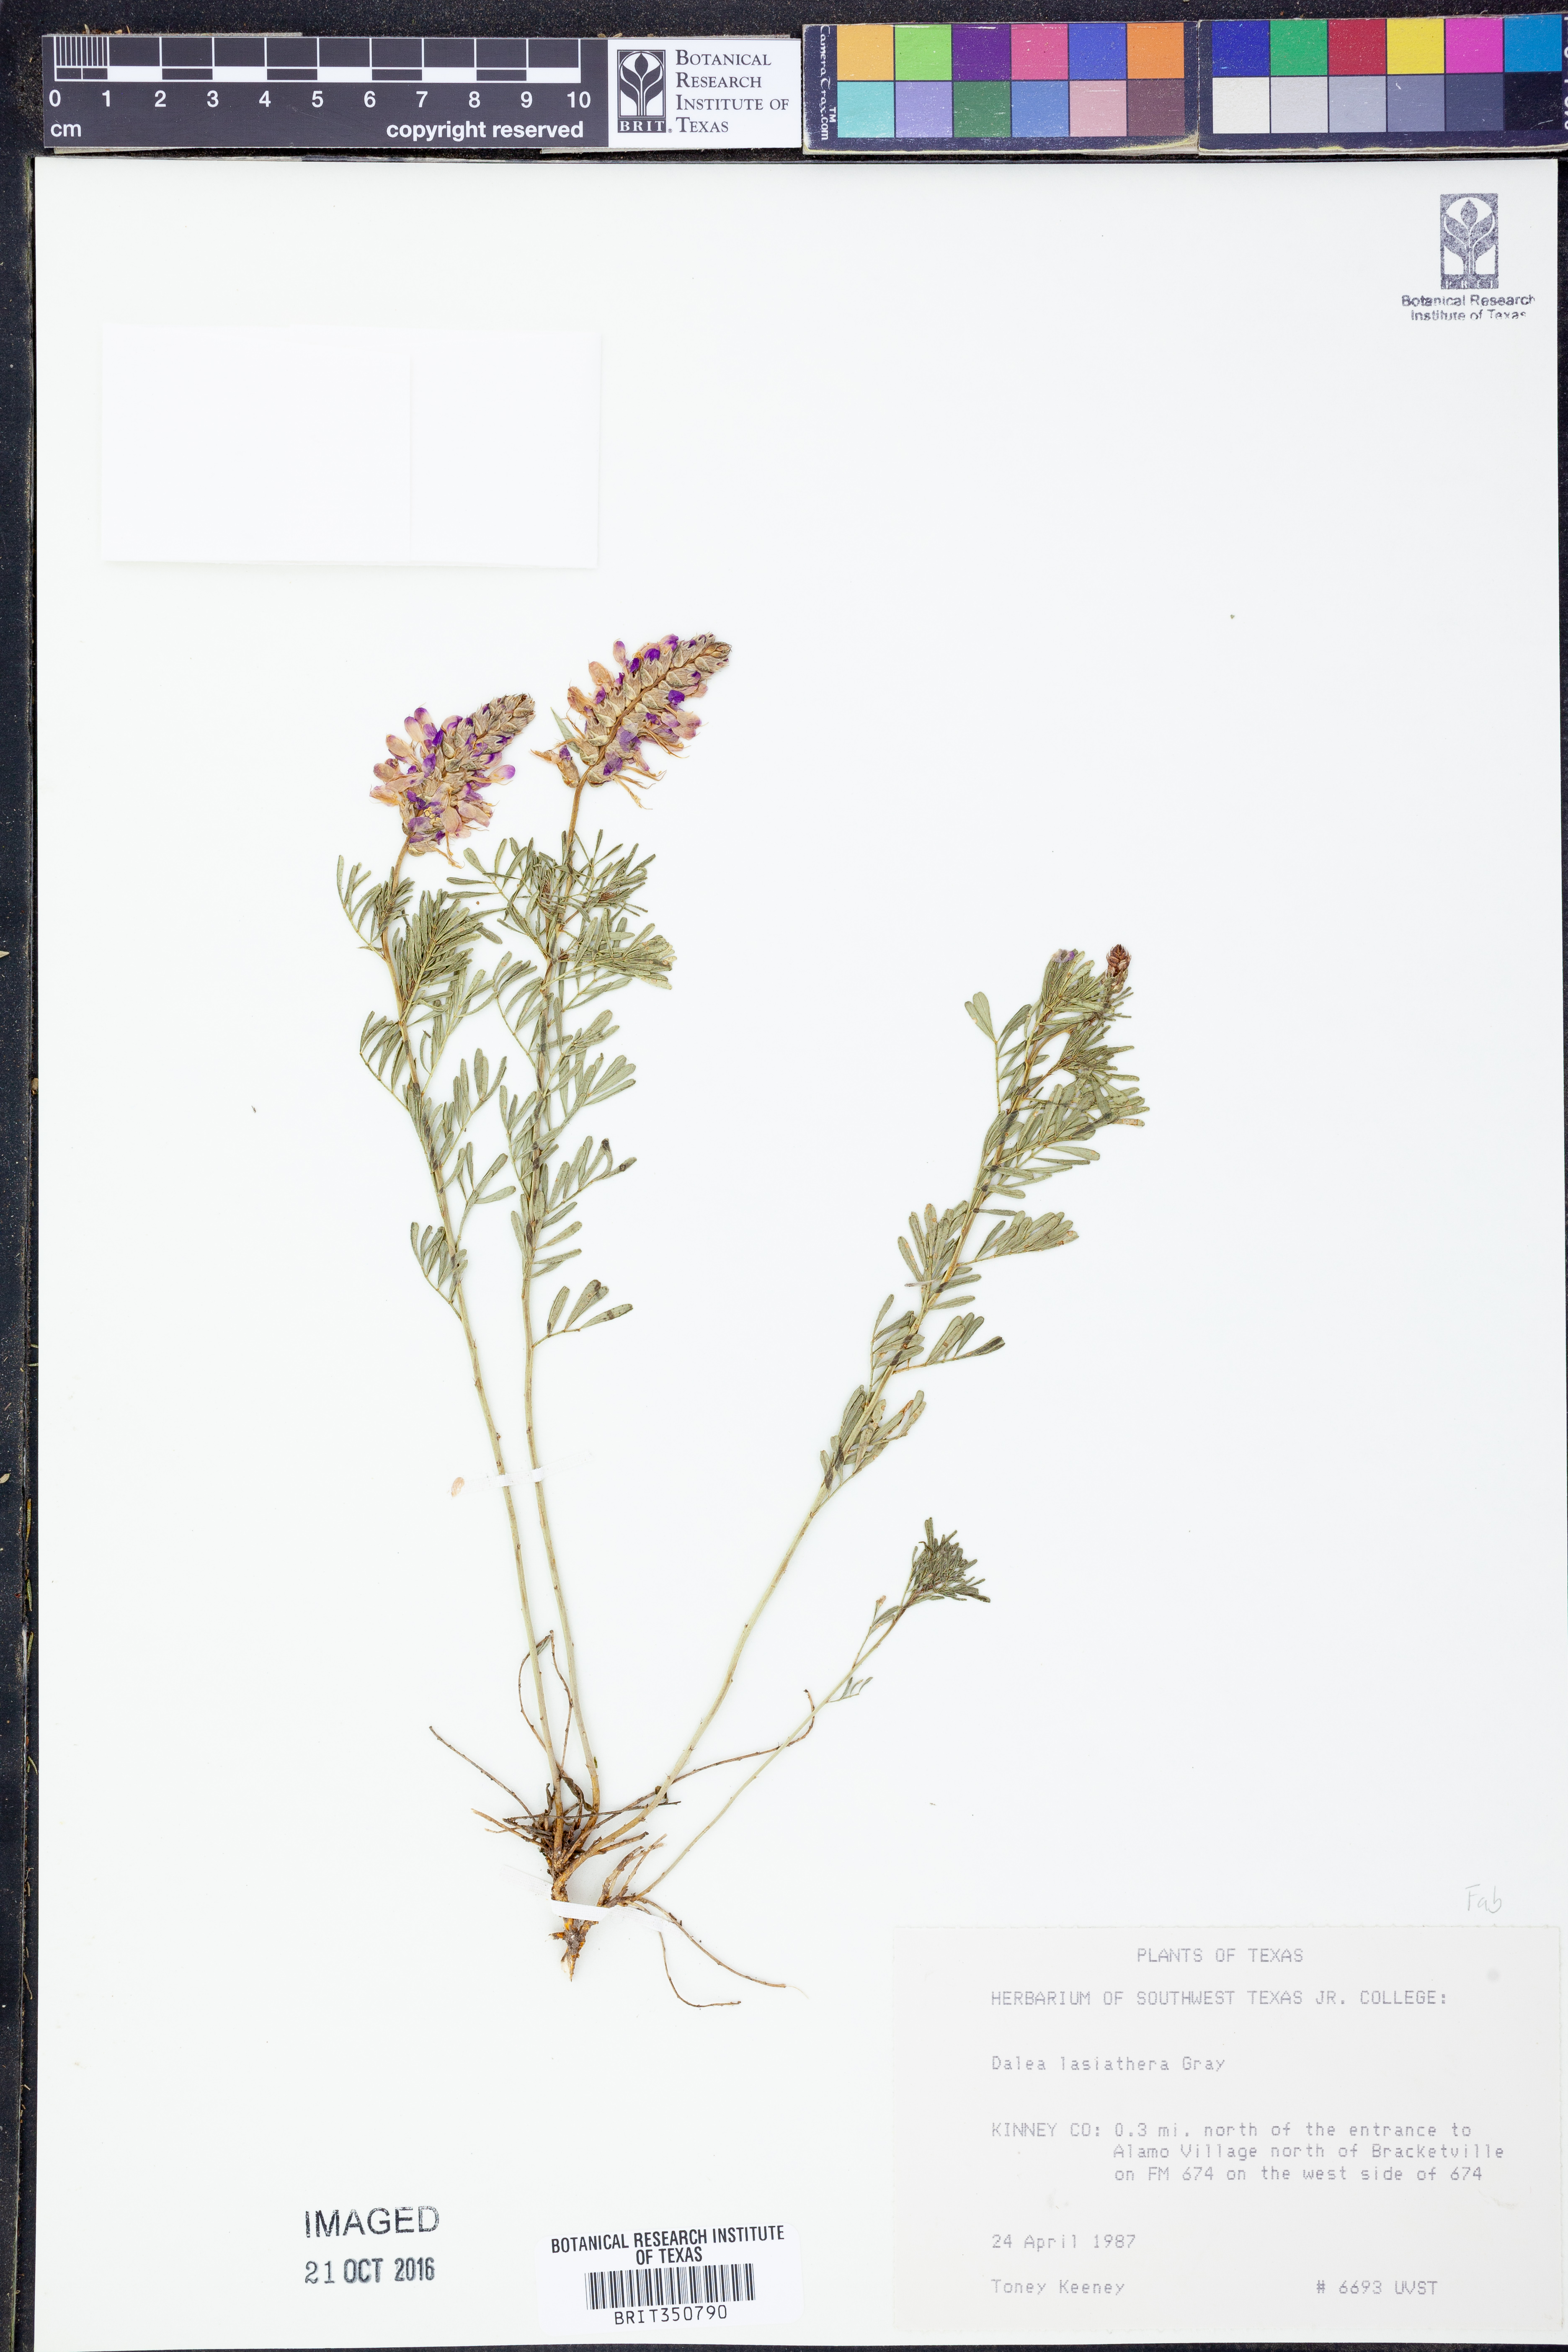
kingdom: Plantae
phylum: Tracheophyta
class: Magnoliopsida
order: Fabales
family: Fabaceae
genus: Dalea
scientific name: Dalea lasiathera
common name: Purple prairie-clover
